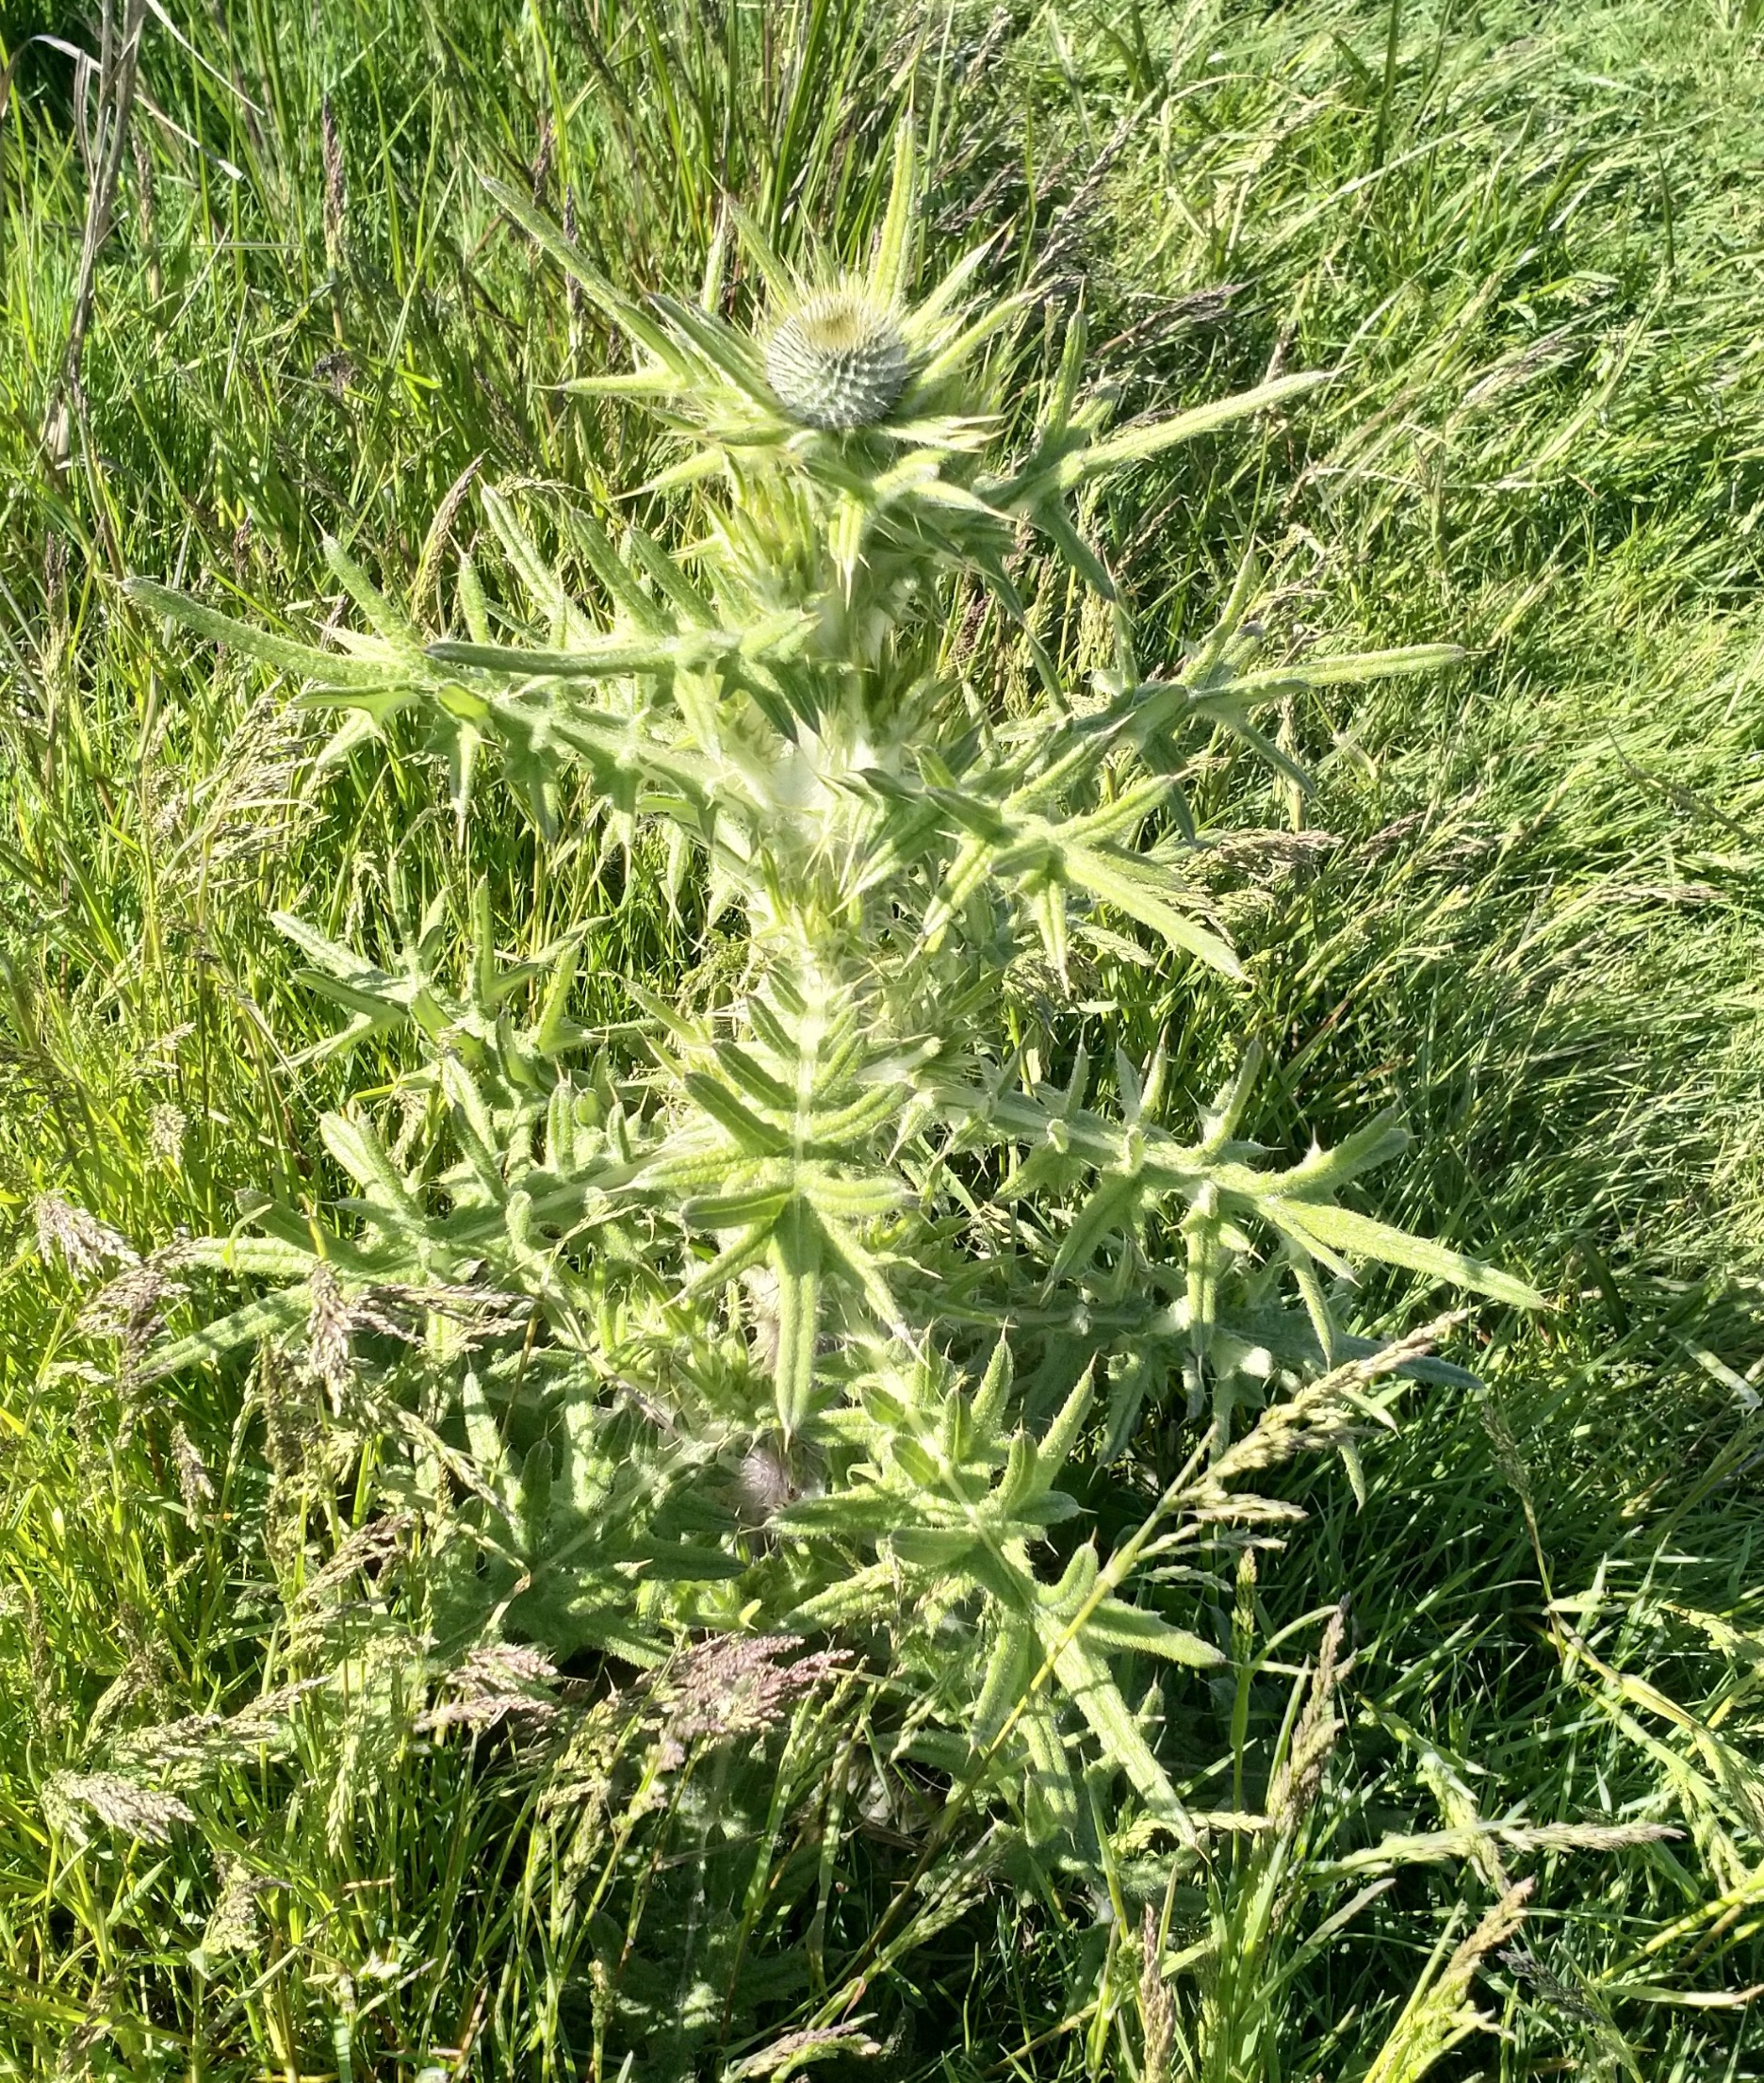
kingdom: Plantae
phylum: Tracheophyta
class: Magnoliopsida
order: Asterales
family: Asteraceae
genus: Cirsium
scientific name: Cirsium vulgare
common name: Horse-tidsel
